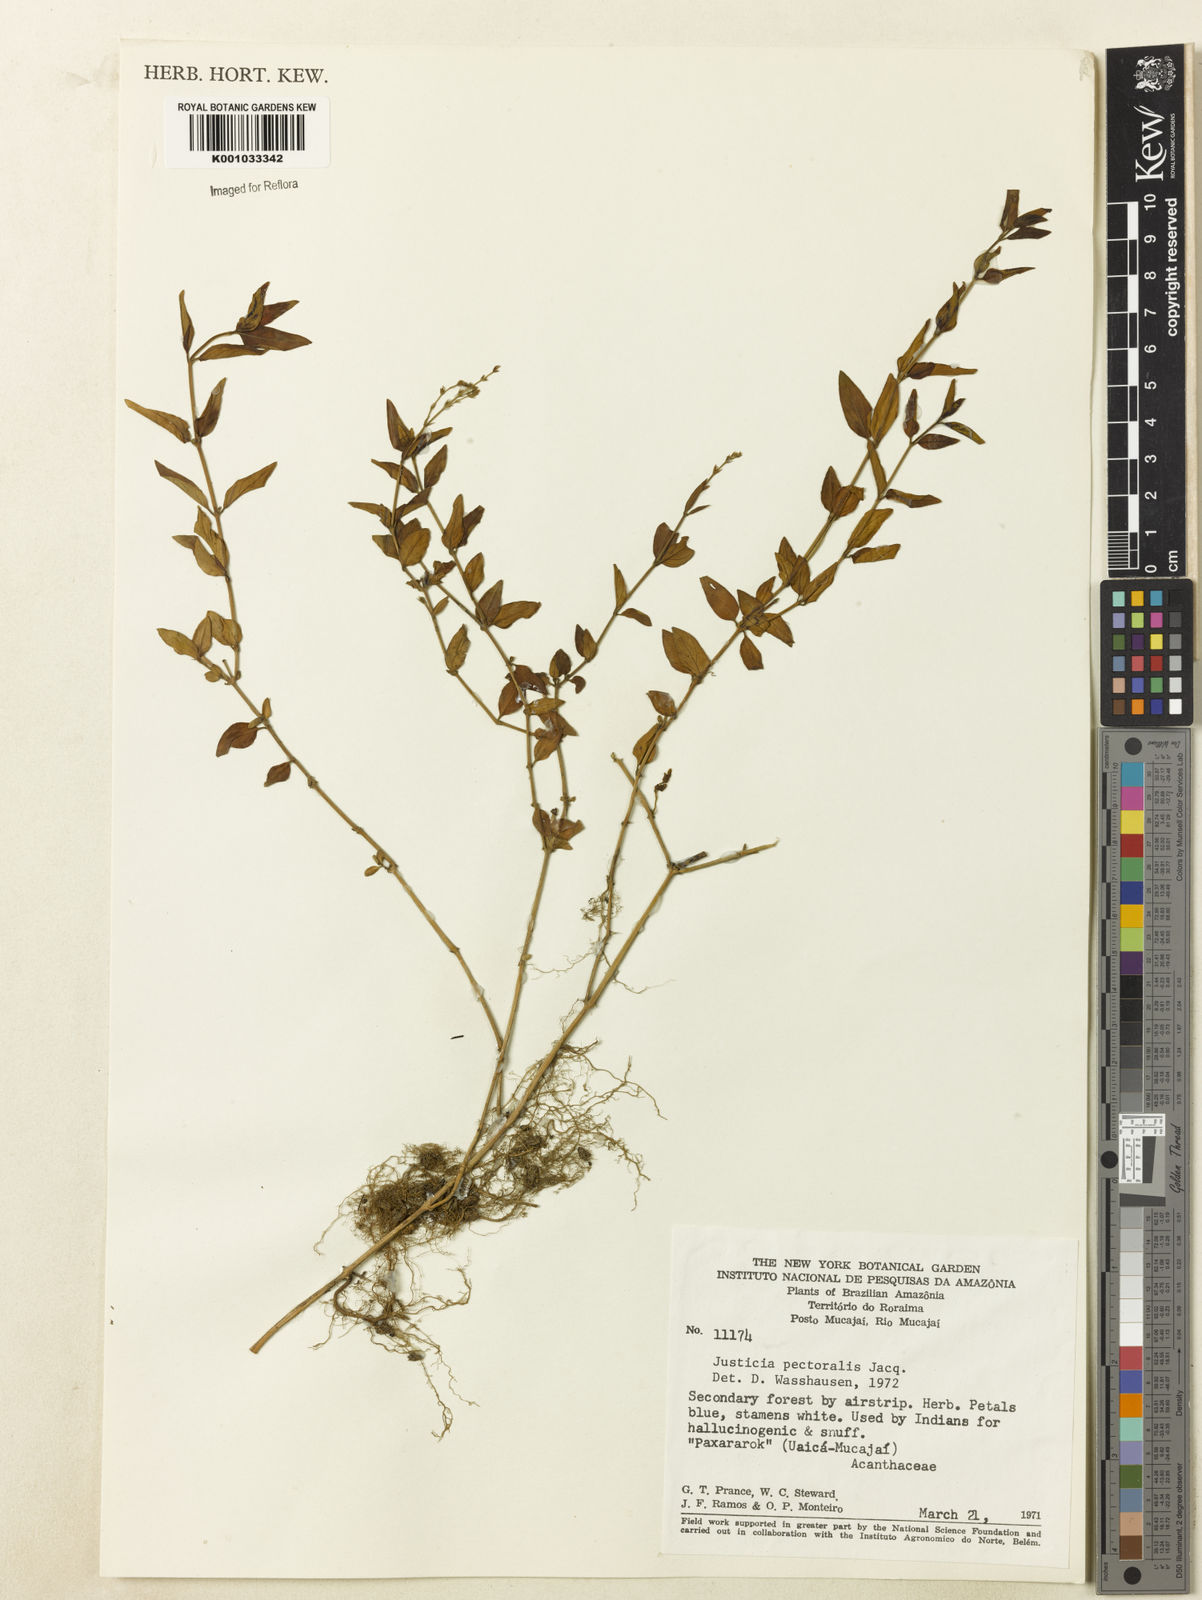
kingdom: Plantae
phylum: Tracheophyta
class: Magnoliopsida
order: Lamiales
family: Acanthaceae
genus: Dianthera
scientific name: Dianthera pectoralis
